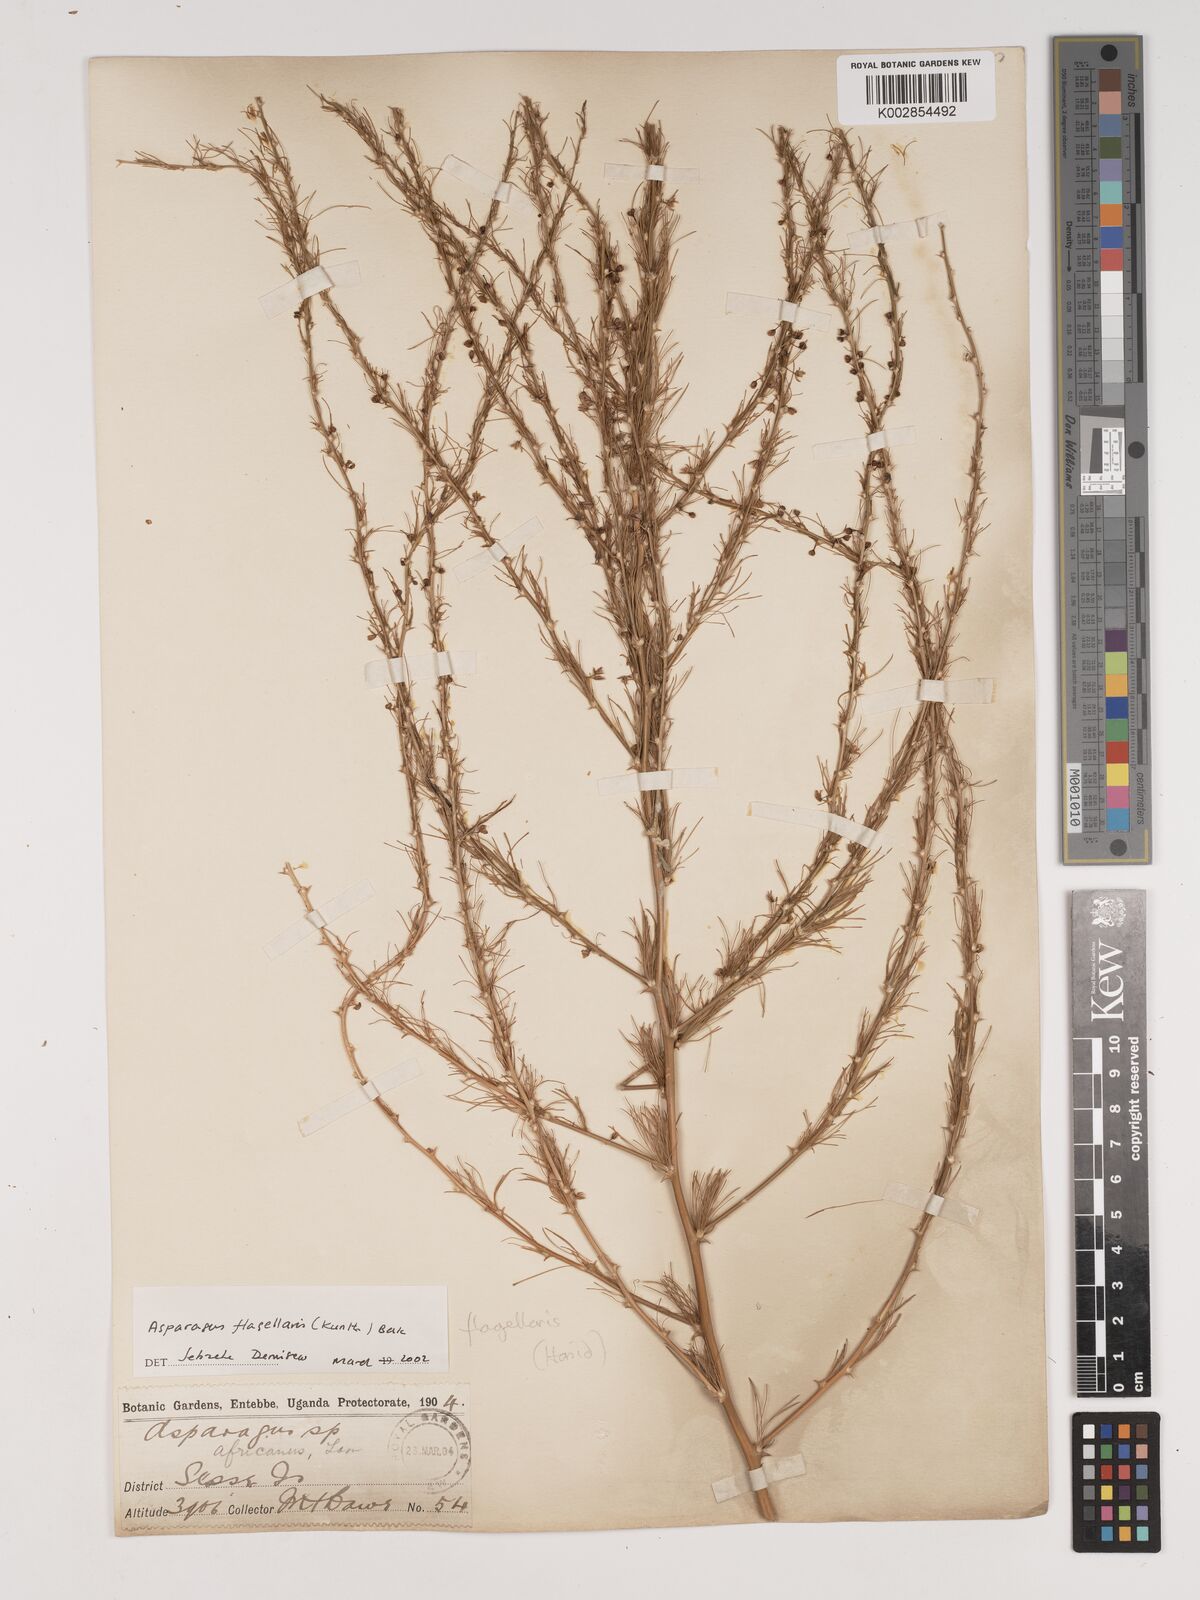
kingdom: Plantae
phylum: Tracheophyta
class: Liliopsida
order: Asparagales
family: Asparagaceae
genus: Asparagus
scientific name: Asparagus flagellaris
